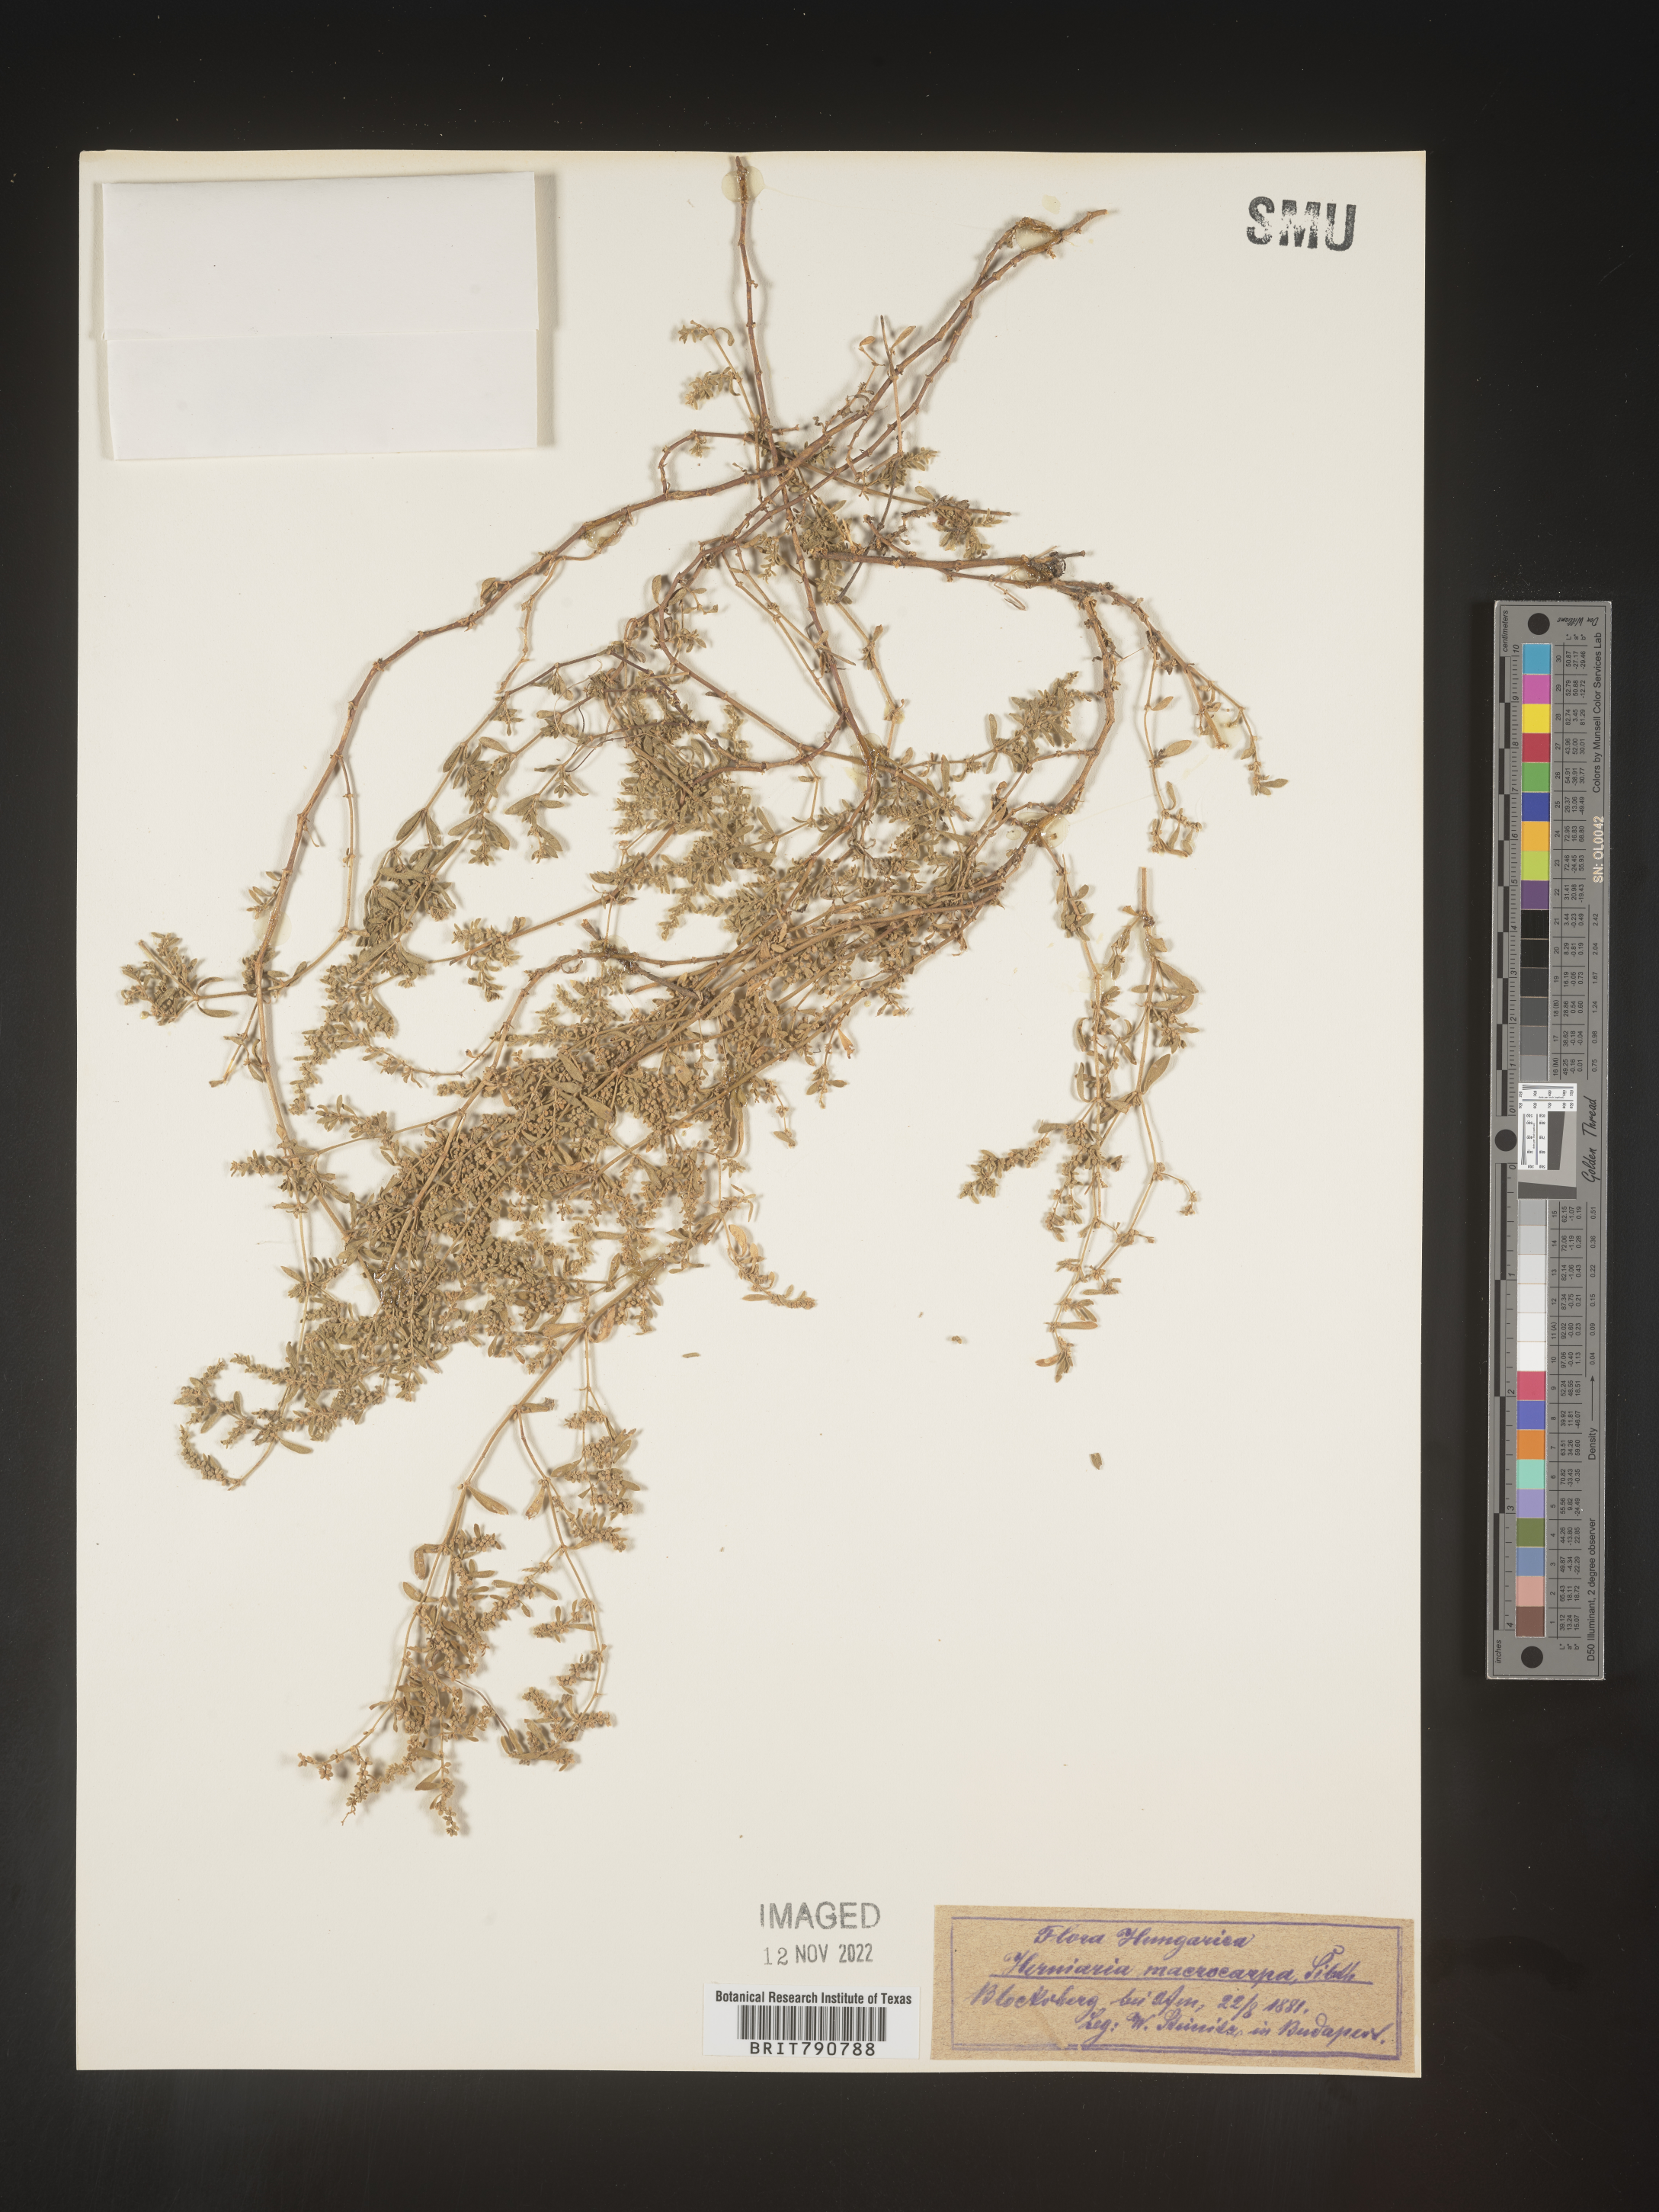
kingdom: Plantae
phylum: Tracheophyta
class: Magnoliopsida
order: Caryophyllales
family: Caryophyllaceae
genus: Herniaria
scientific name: Herniaria
